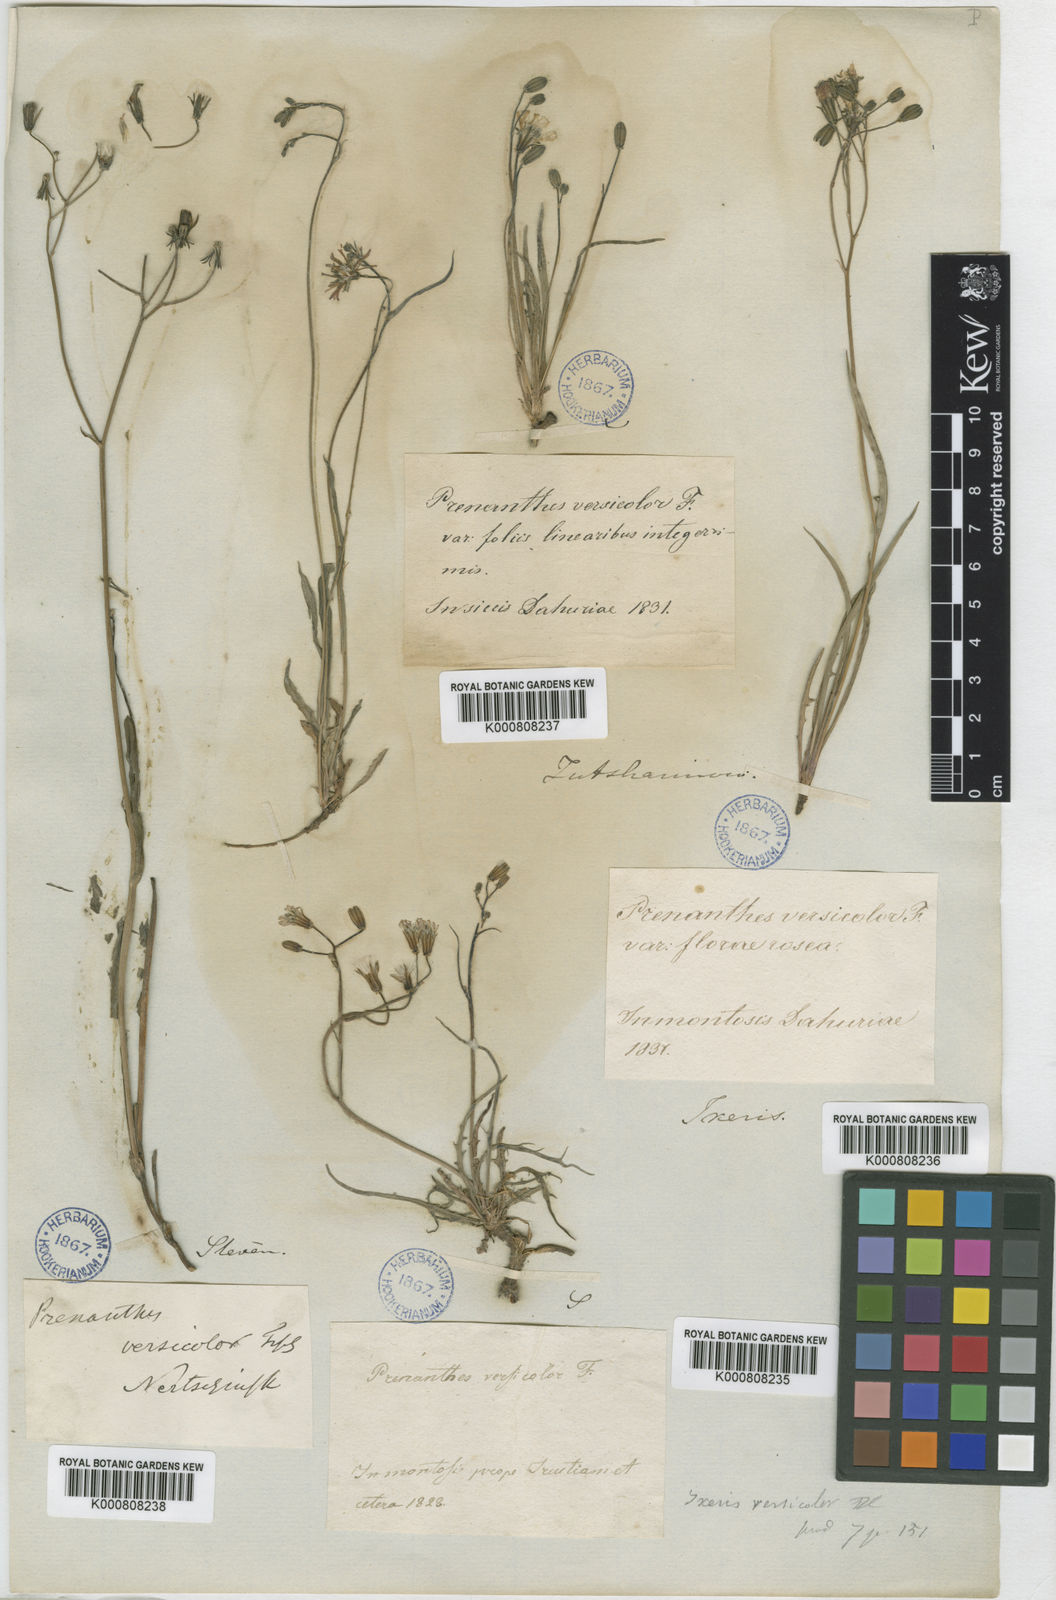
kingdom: Plantae
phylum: Tracheophyta
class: Magnoliopsida
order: Asterales
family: Asteraceae
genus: Ixeris
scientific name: Ixeris chinensis
